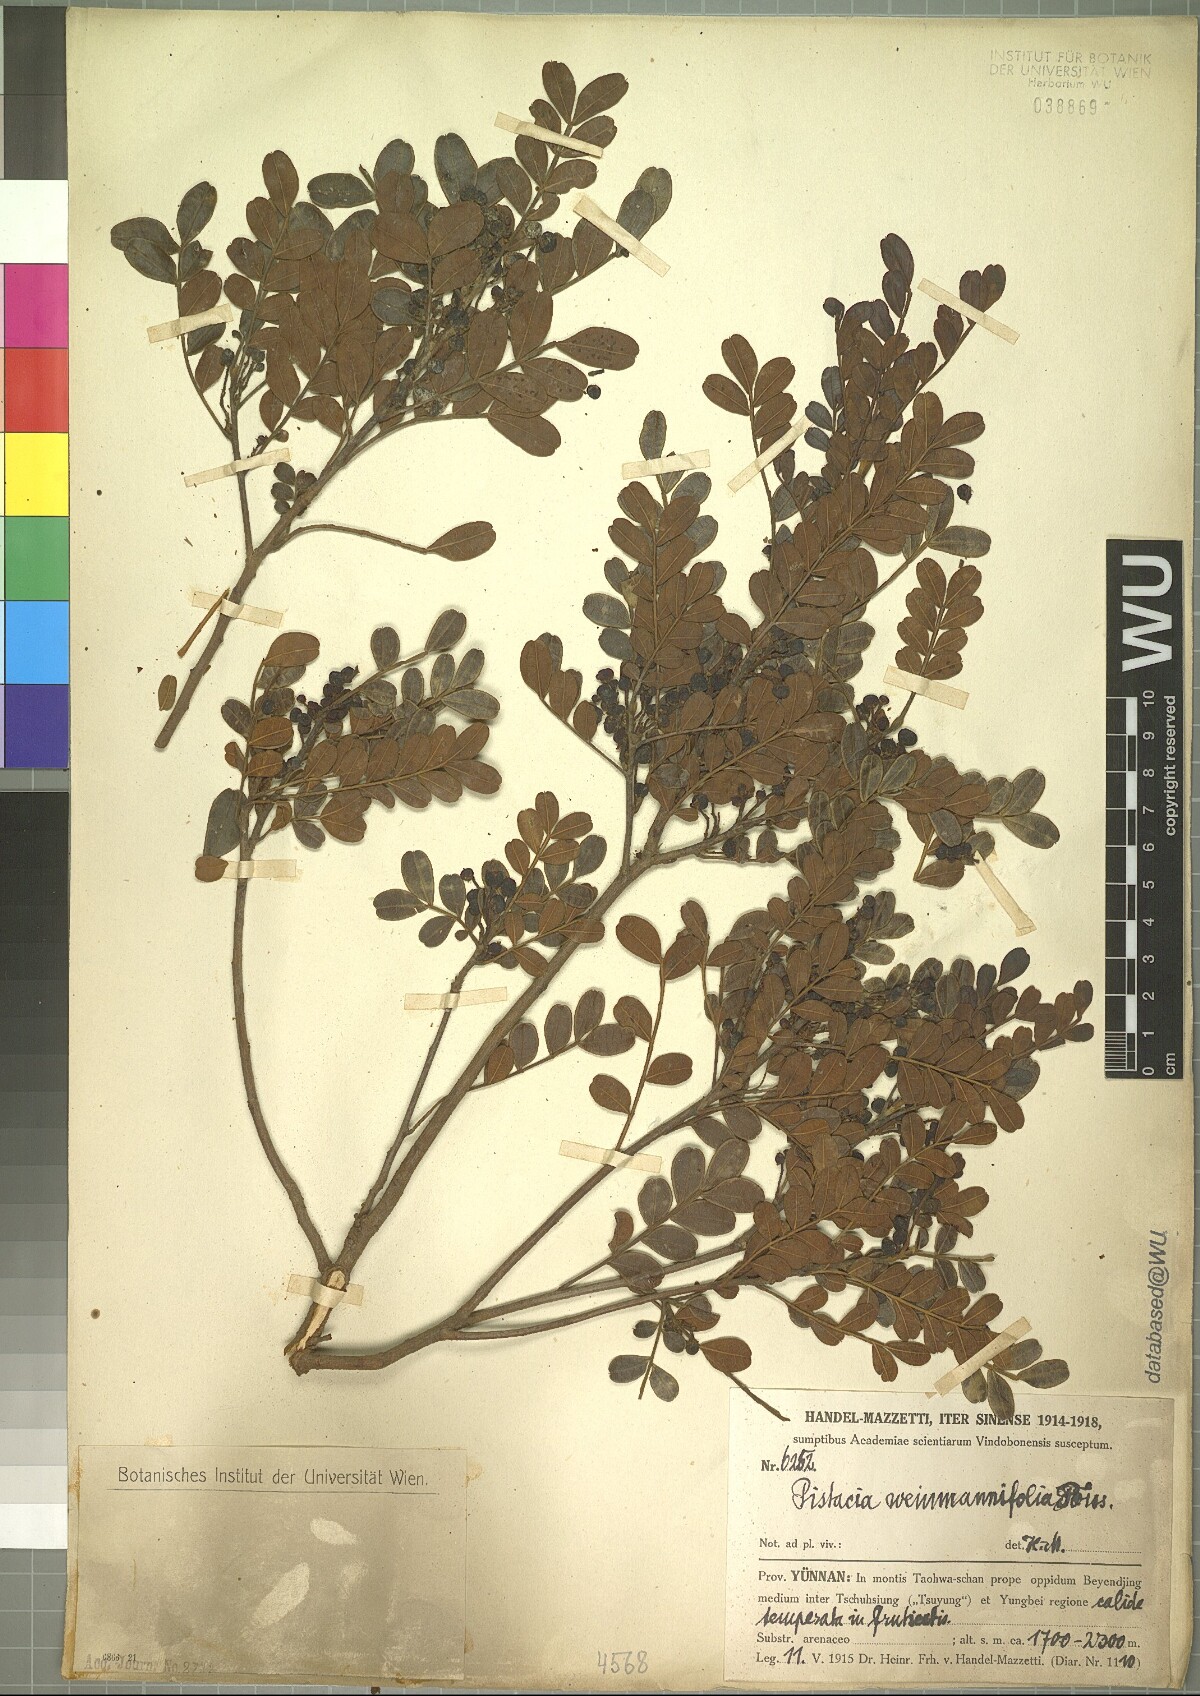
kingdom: Plantae
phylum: Tracheophyta
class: Magnoliopsida
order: Sapindales
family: Anacardiaceae
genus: Pistacia
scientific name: Pistacia weinmannifolia
